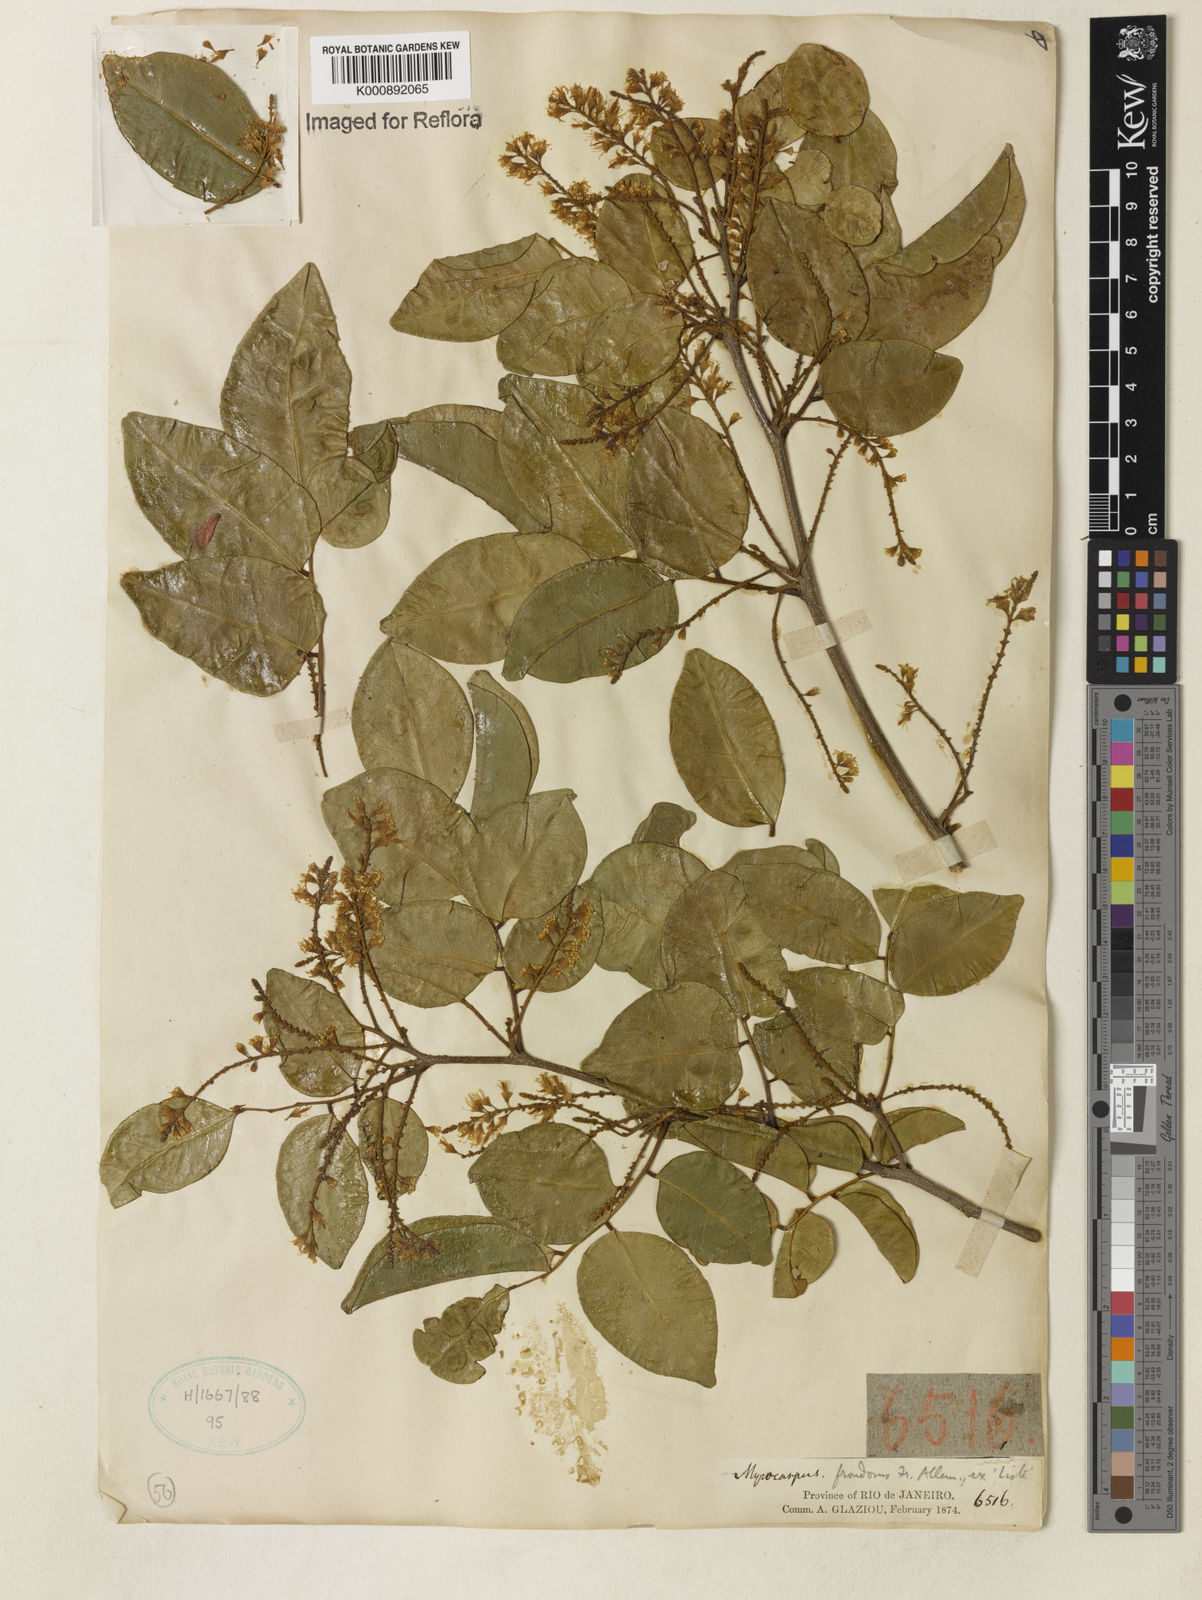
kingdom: Plantae
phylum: Tracheophyta
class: Magnoliopsida
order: Fabales
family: Fabaceae
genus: Myrocarpus
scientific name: Myrocarpus
